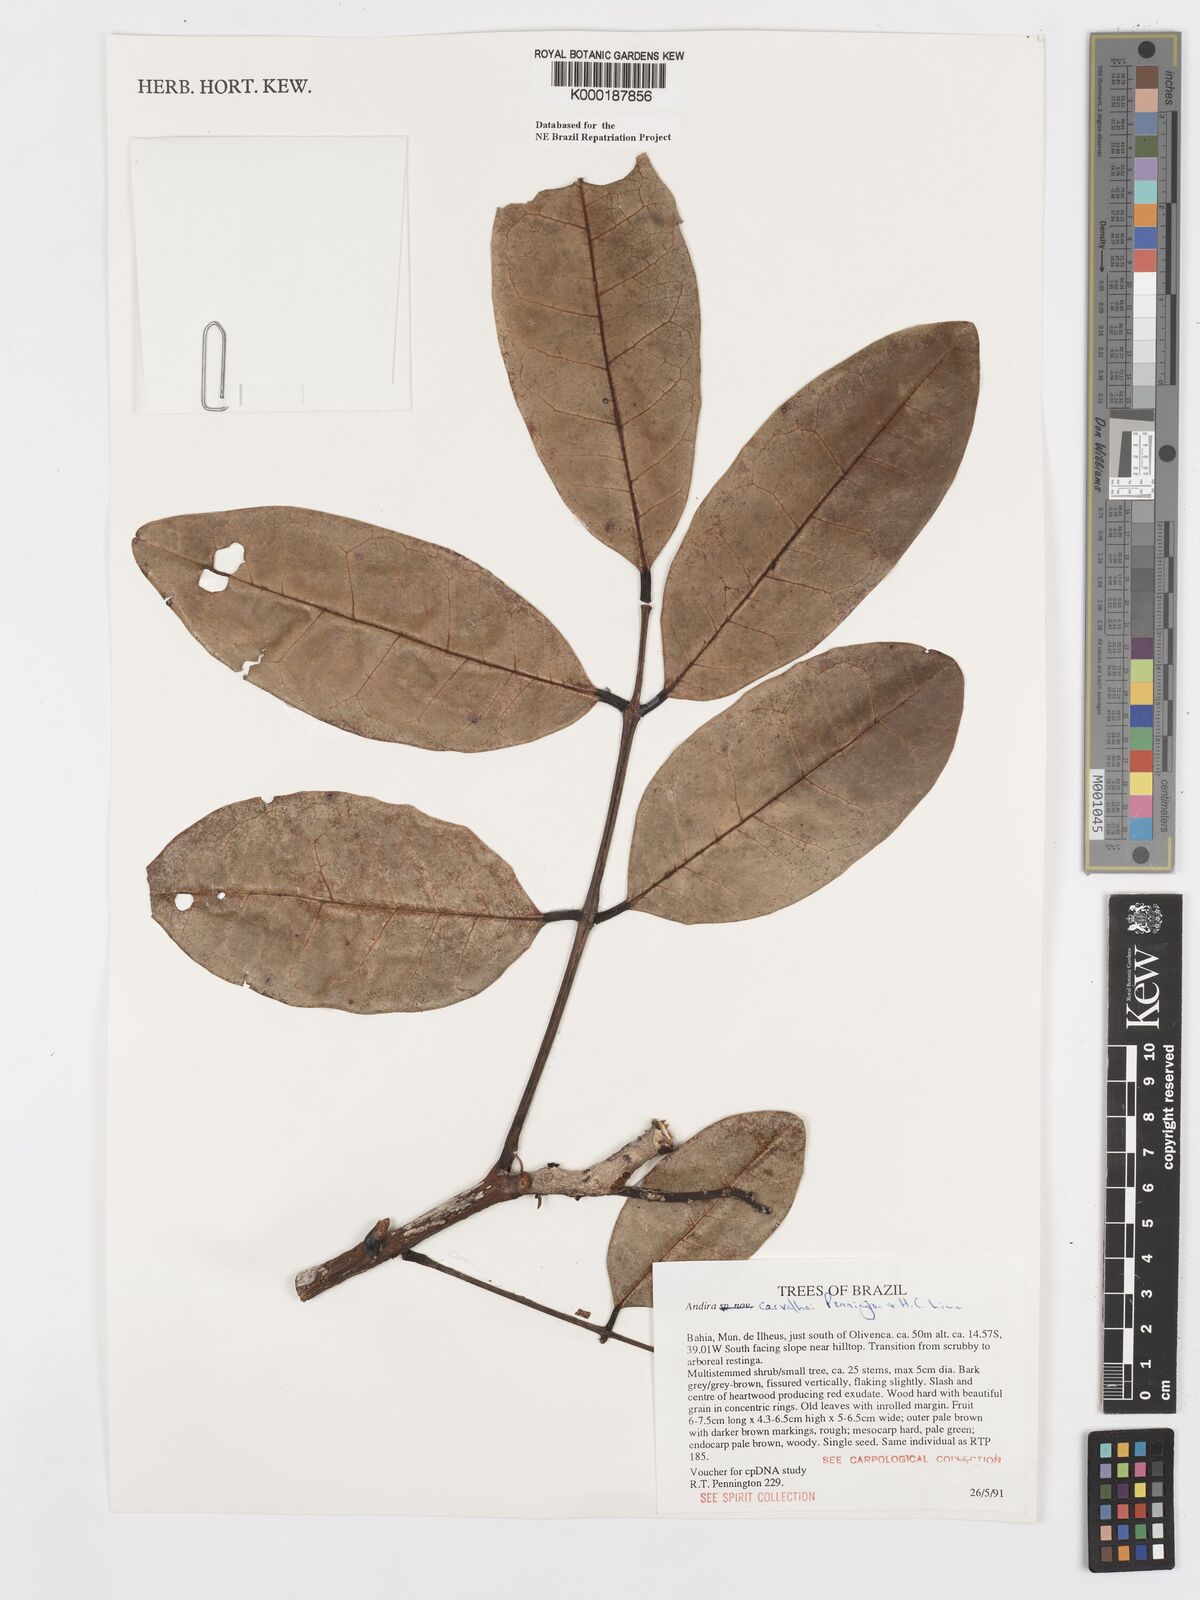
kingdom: Plantae
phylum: Tracheophyta
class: Magnoliopsida
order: Fabales
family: Fabaceae
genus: Andira
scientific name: Andira carvalhoi
